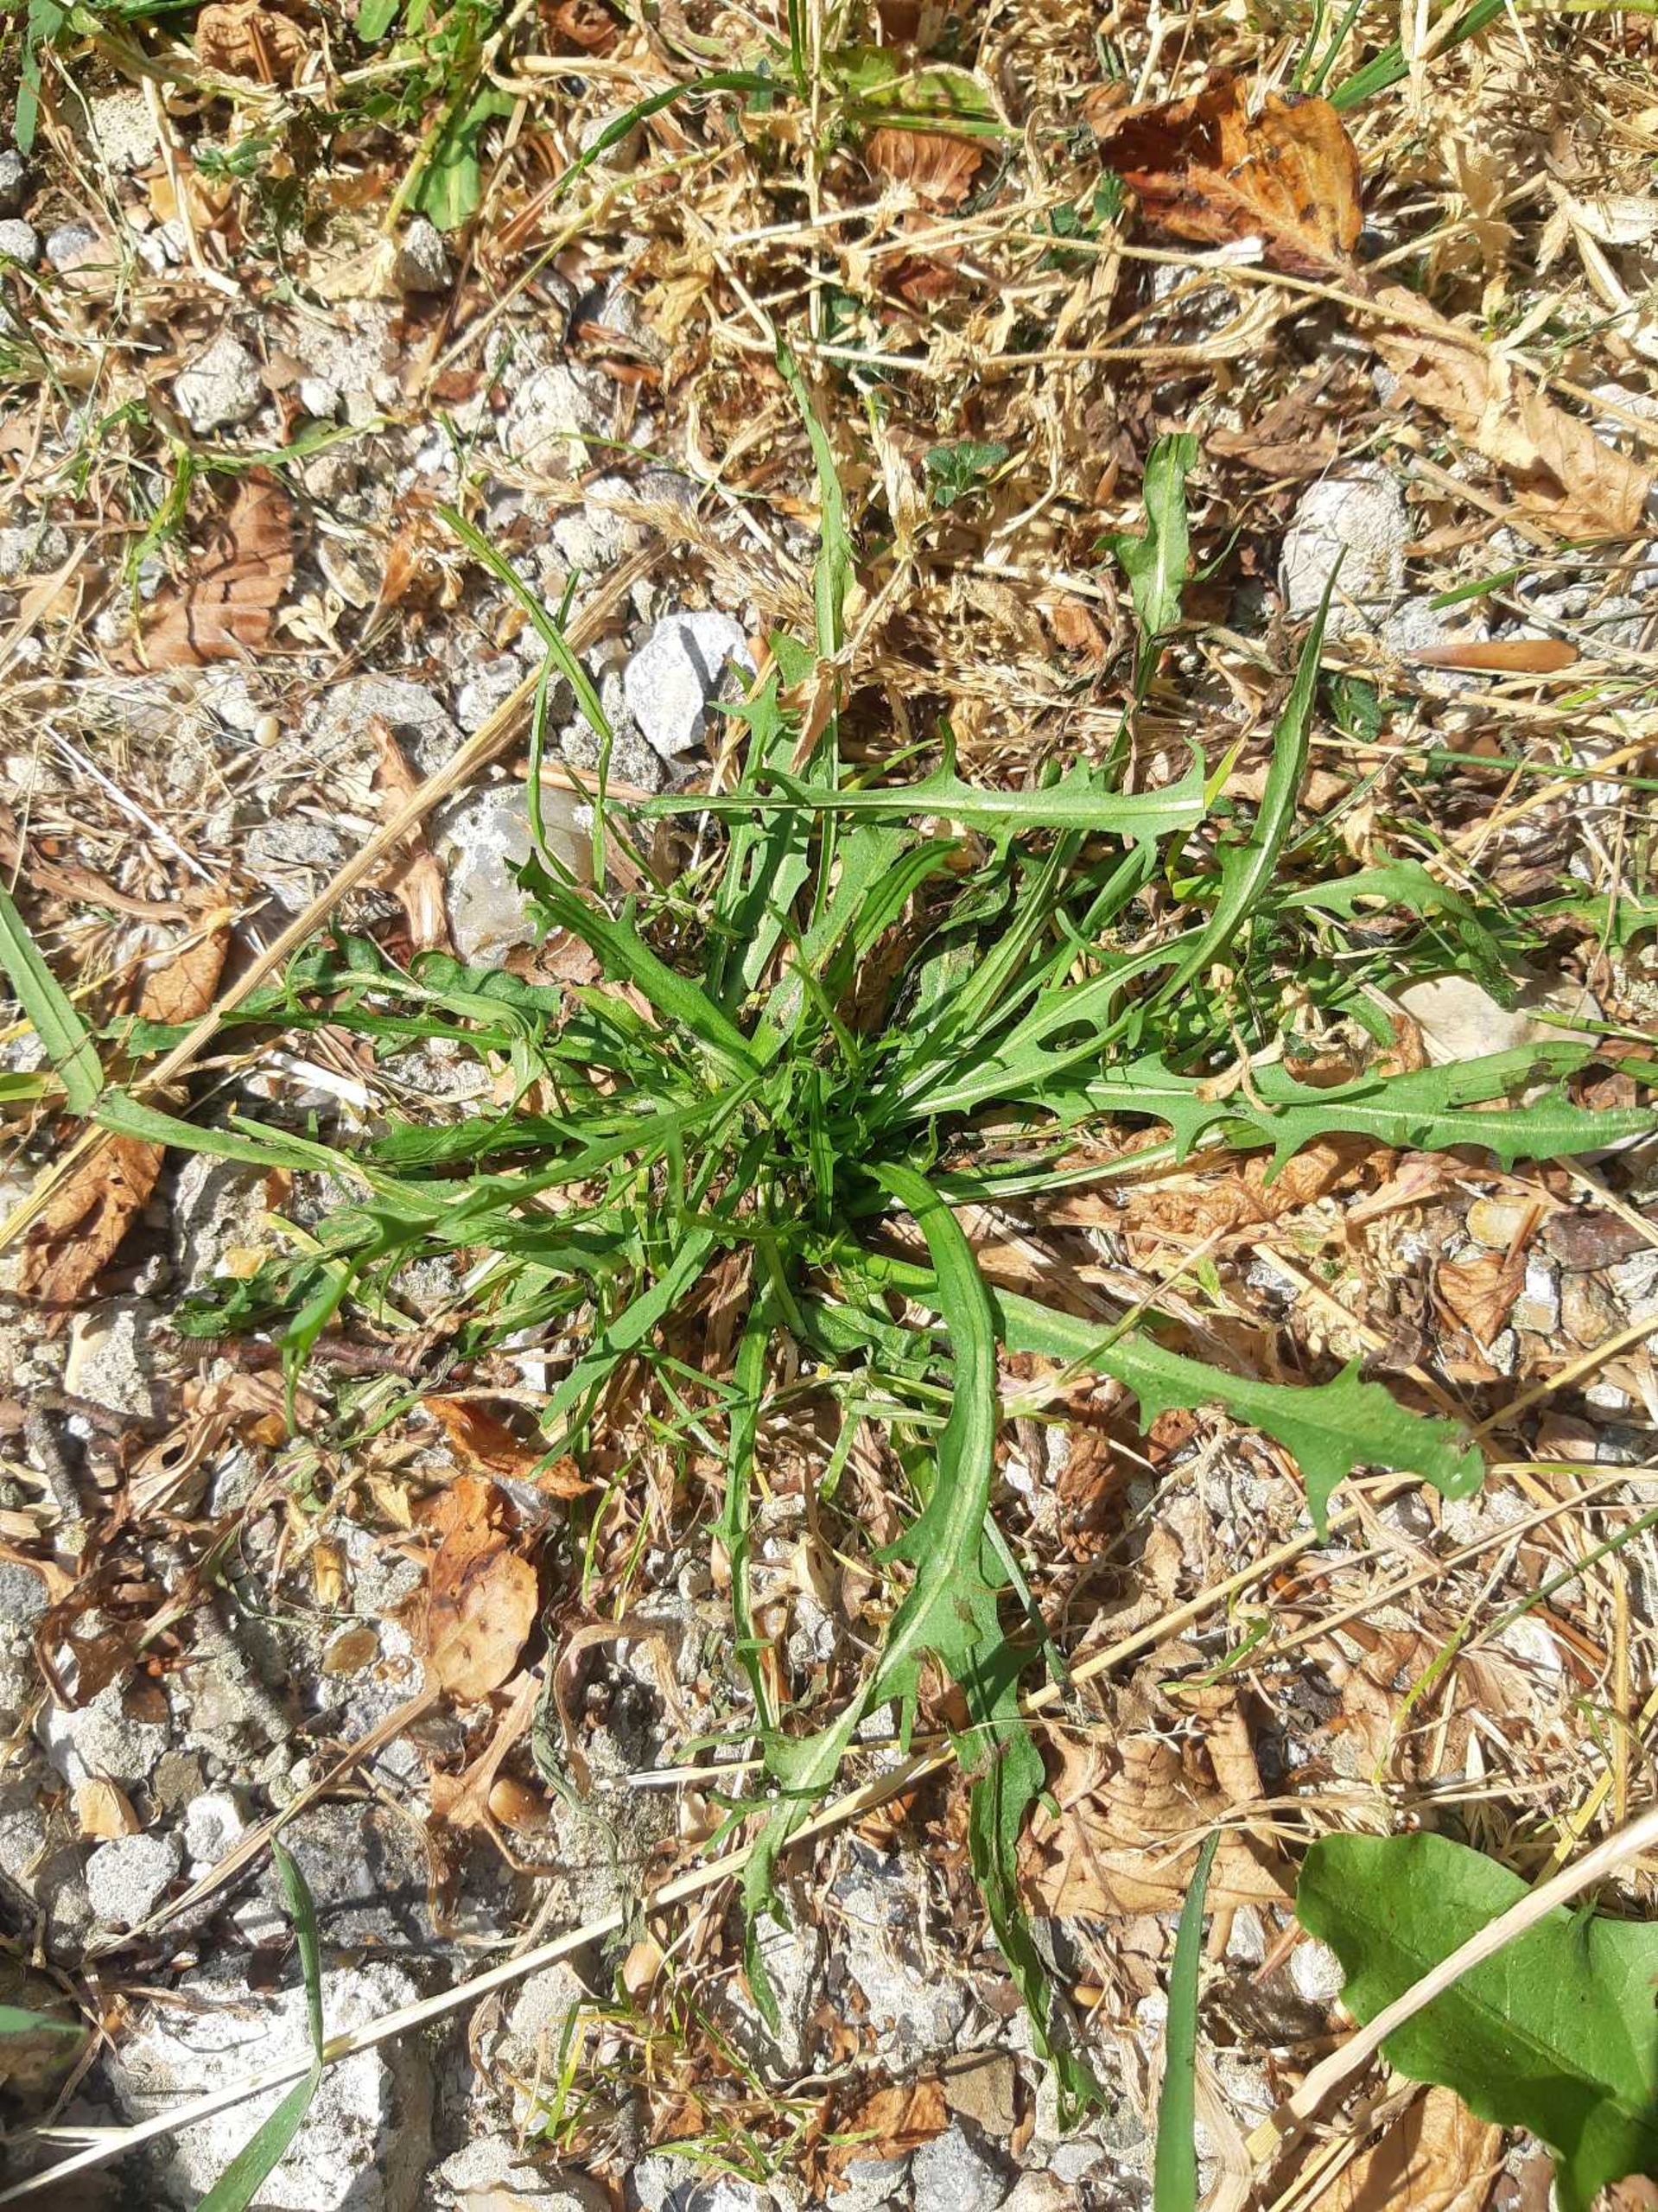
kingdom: Plantae
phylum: Tracheophyta
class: Magnoliopsida
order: Asterales
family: Asteraceae
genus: Scorzoneroides
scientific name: Scorzoneroides autumnalis
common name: Høst-borst
